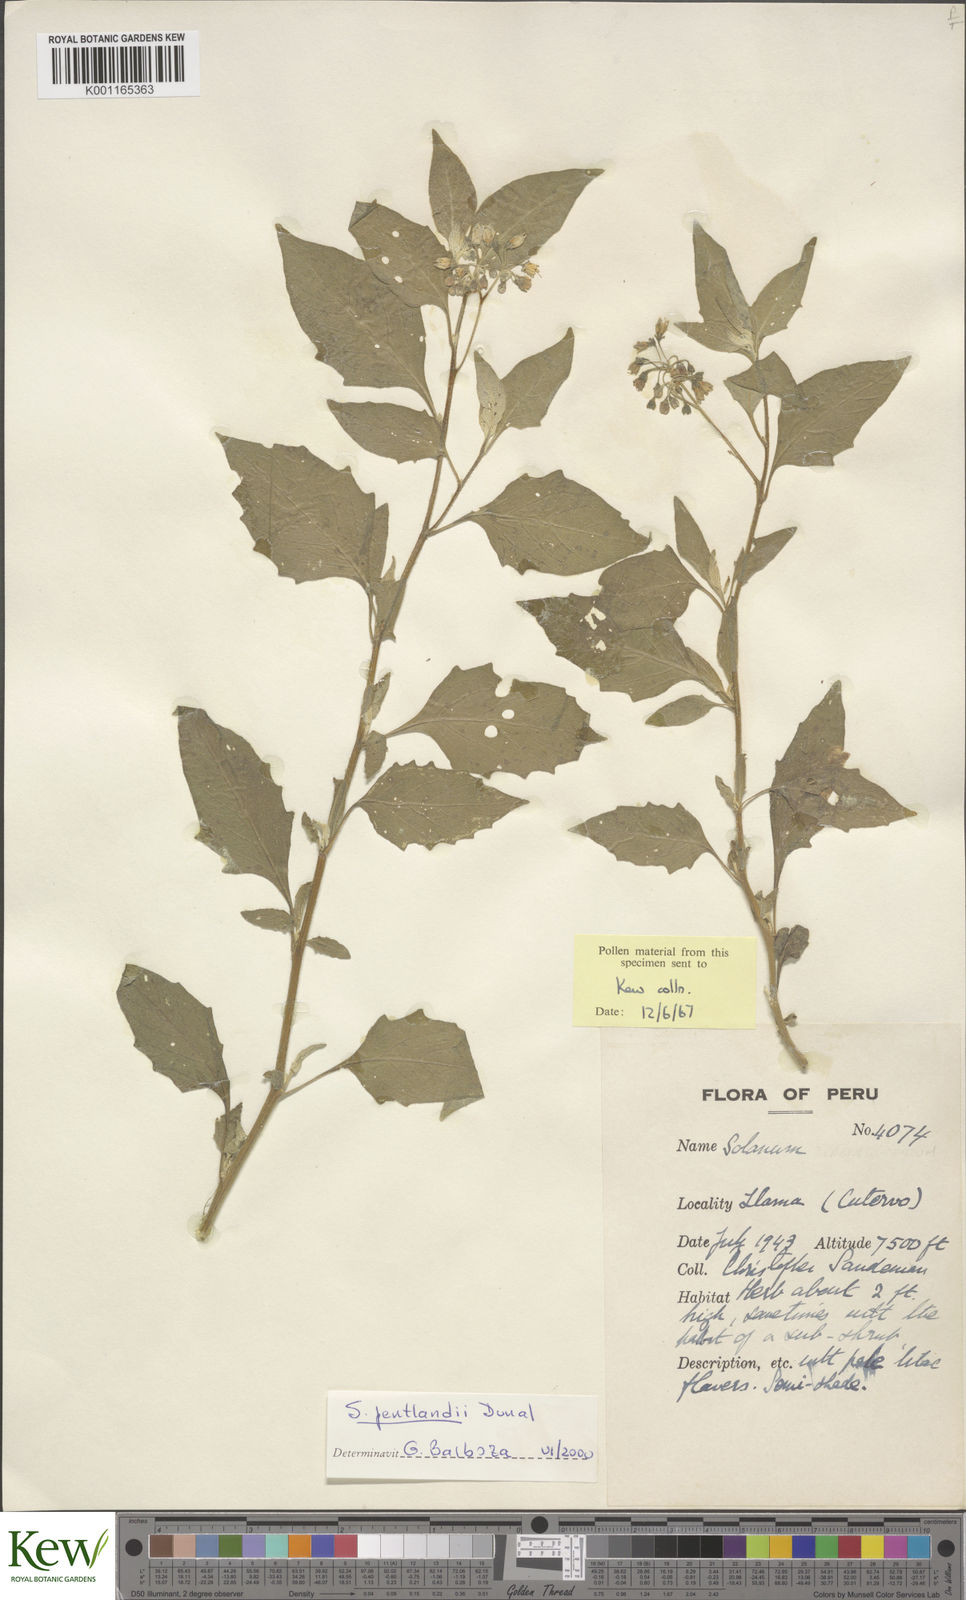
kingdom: Plantae
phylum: Tracheophyta
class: Magnoliopsida
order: Solanales
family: Solanaceae
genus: Solanum
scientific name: Solanum pentlandii
